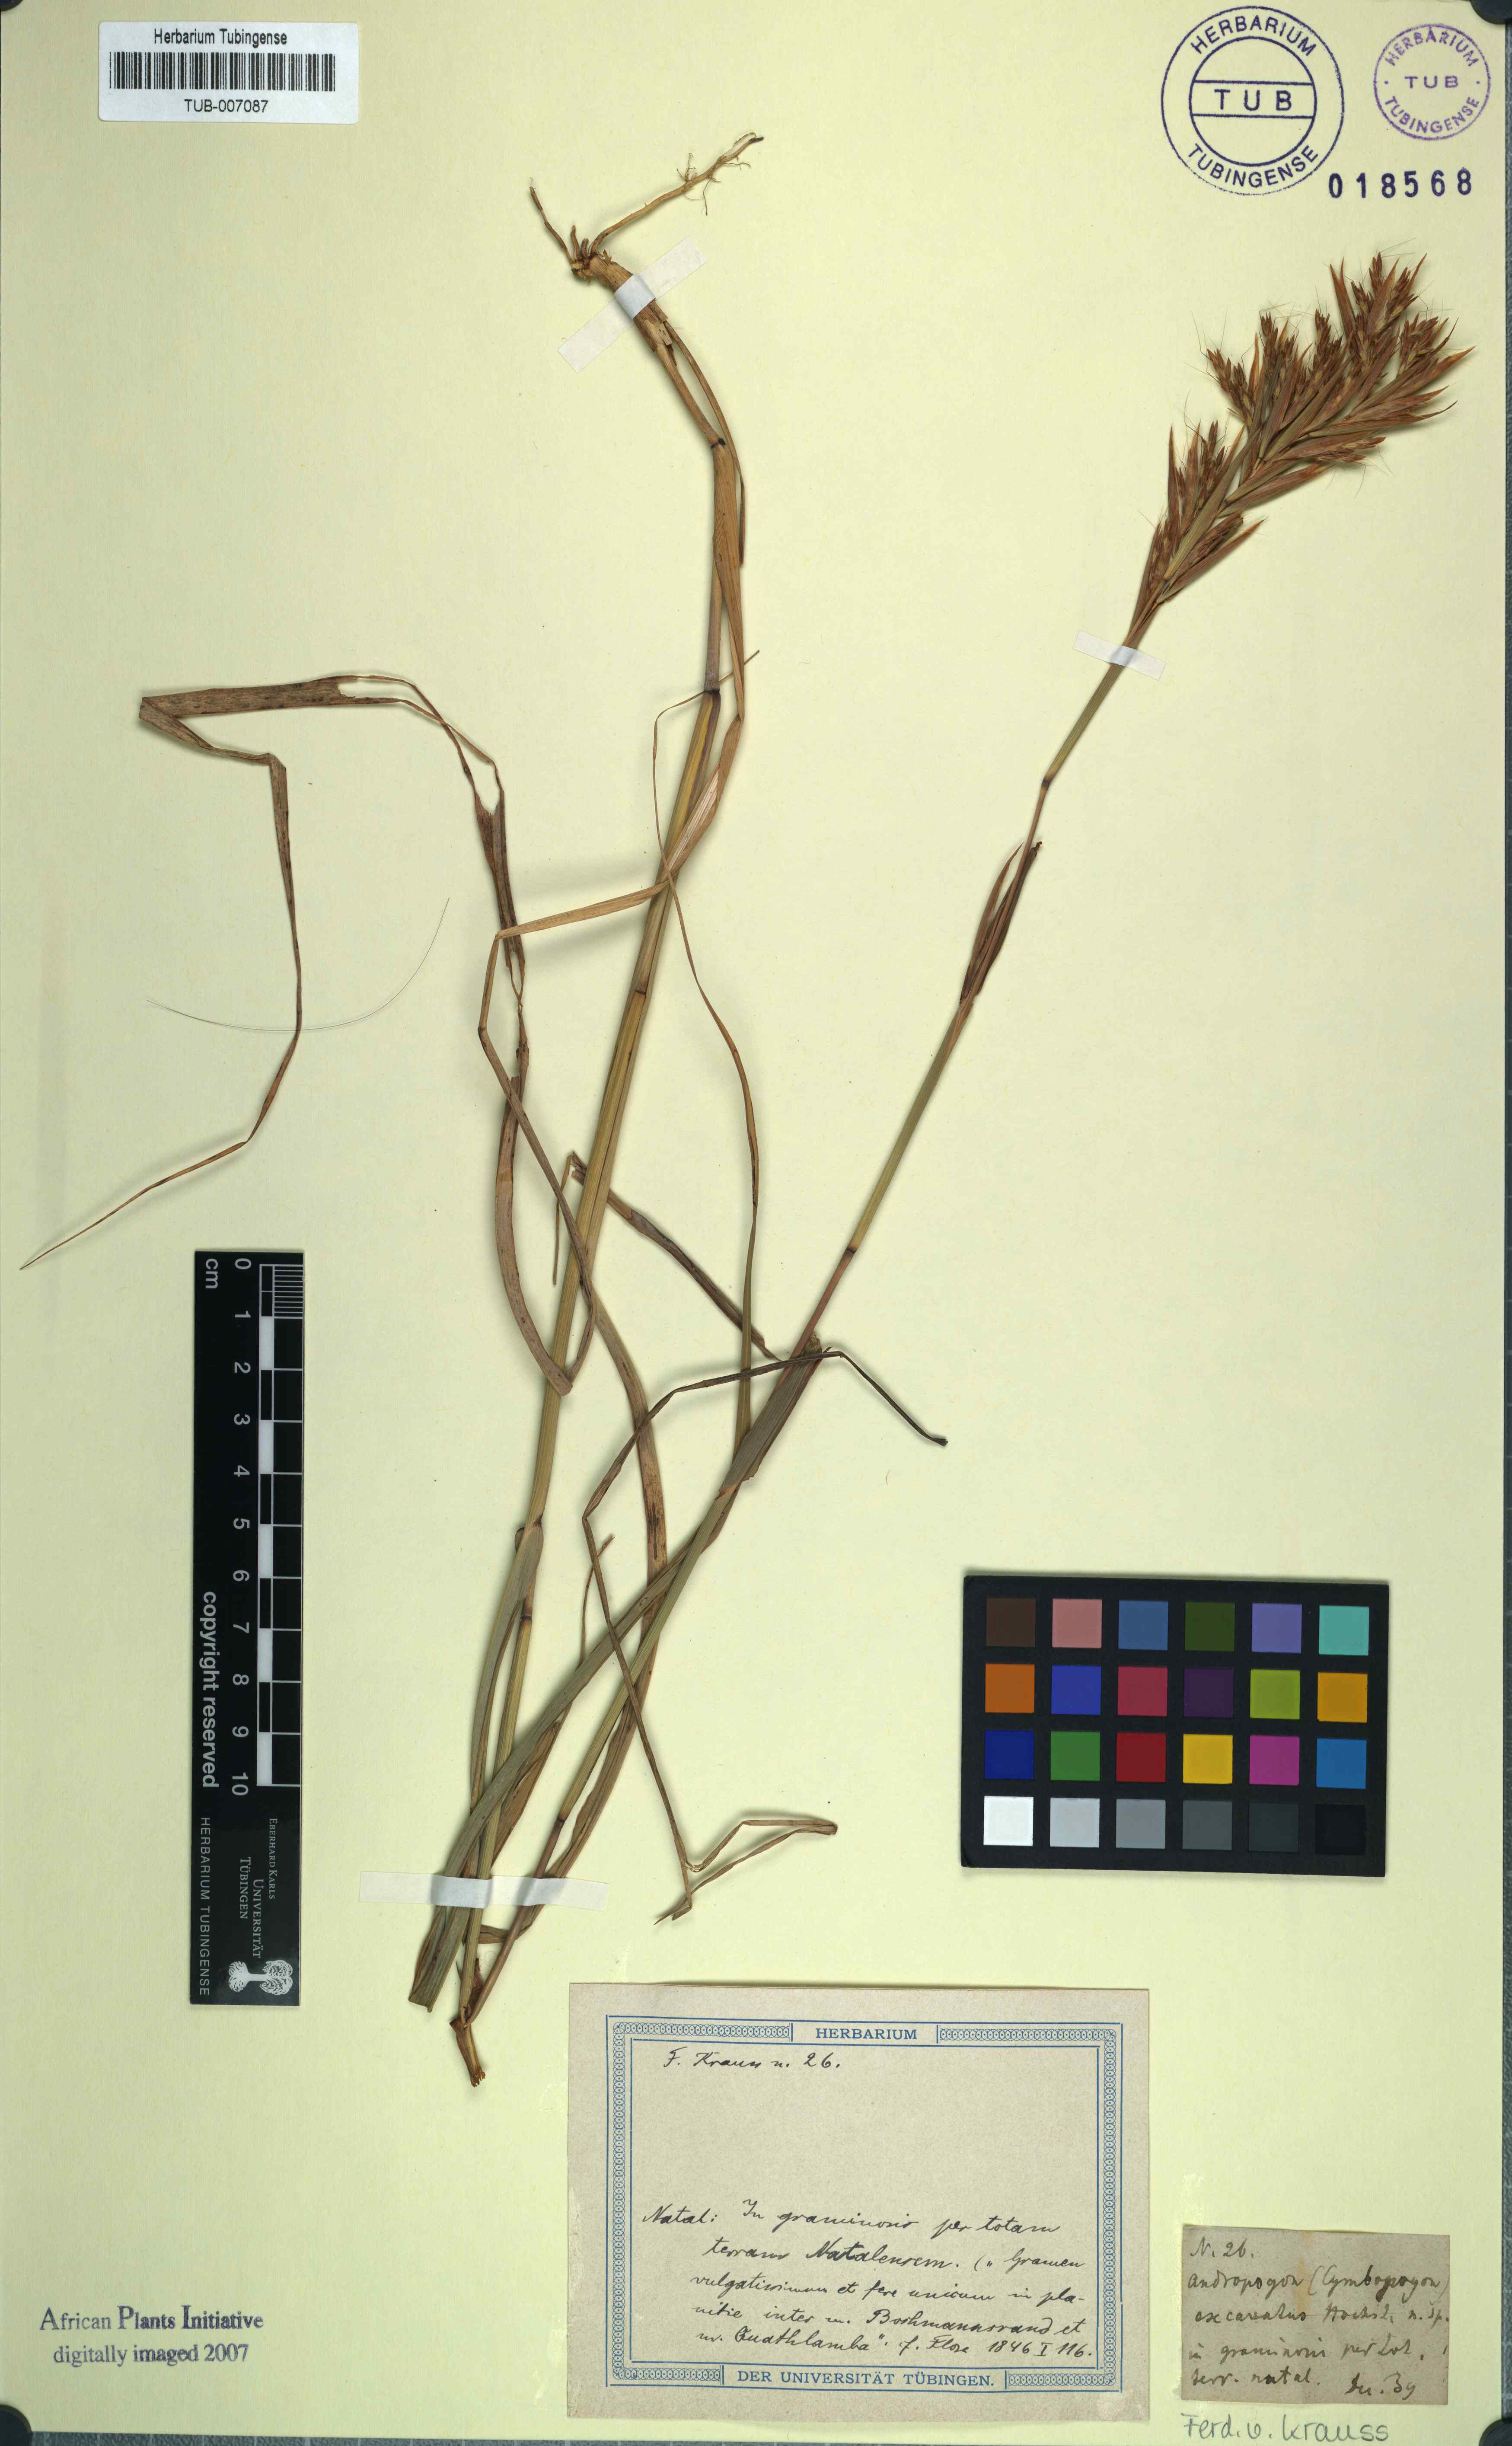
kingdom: Plantae
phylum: Tracheophyta
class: Liliopsida
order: Poales
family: Poaceae
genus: Cymbopogon
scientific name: Cymbopogon schoenanthus
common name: Geranium grass
